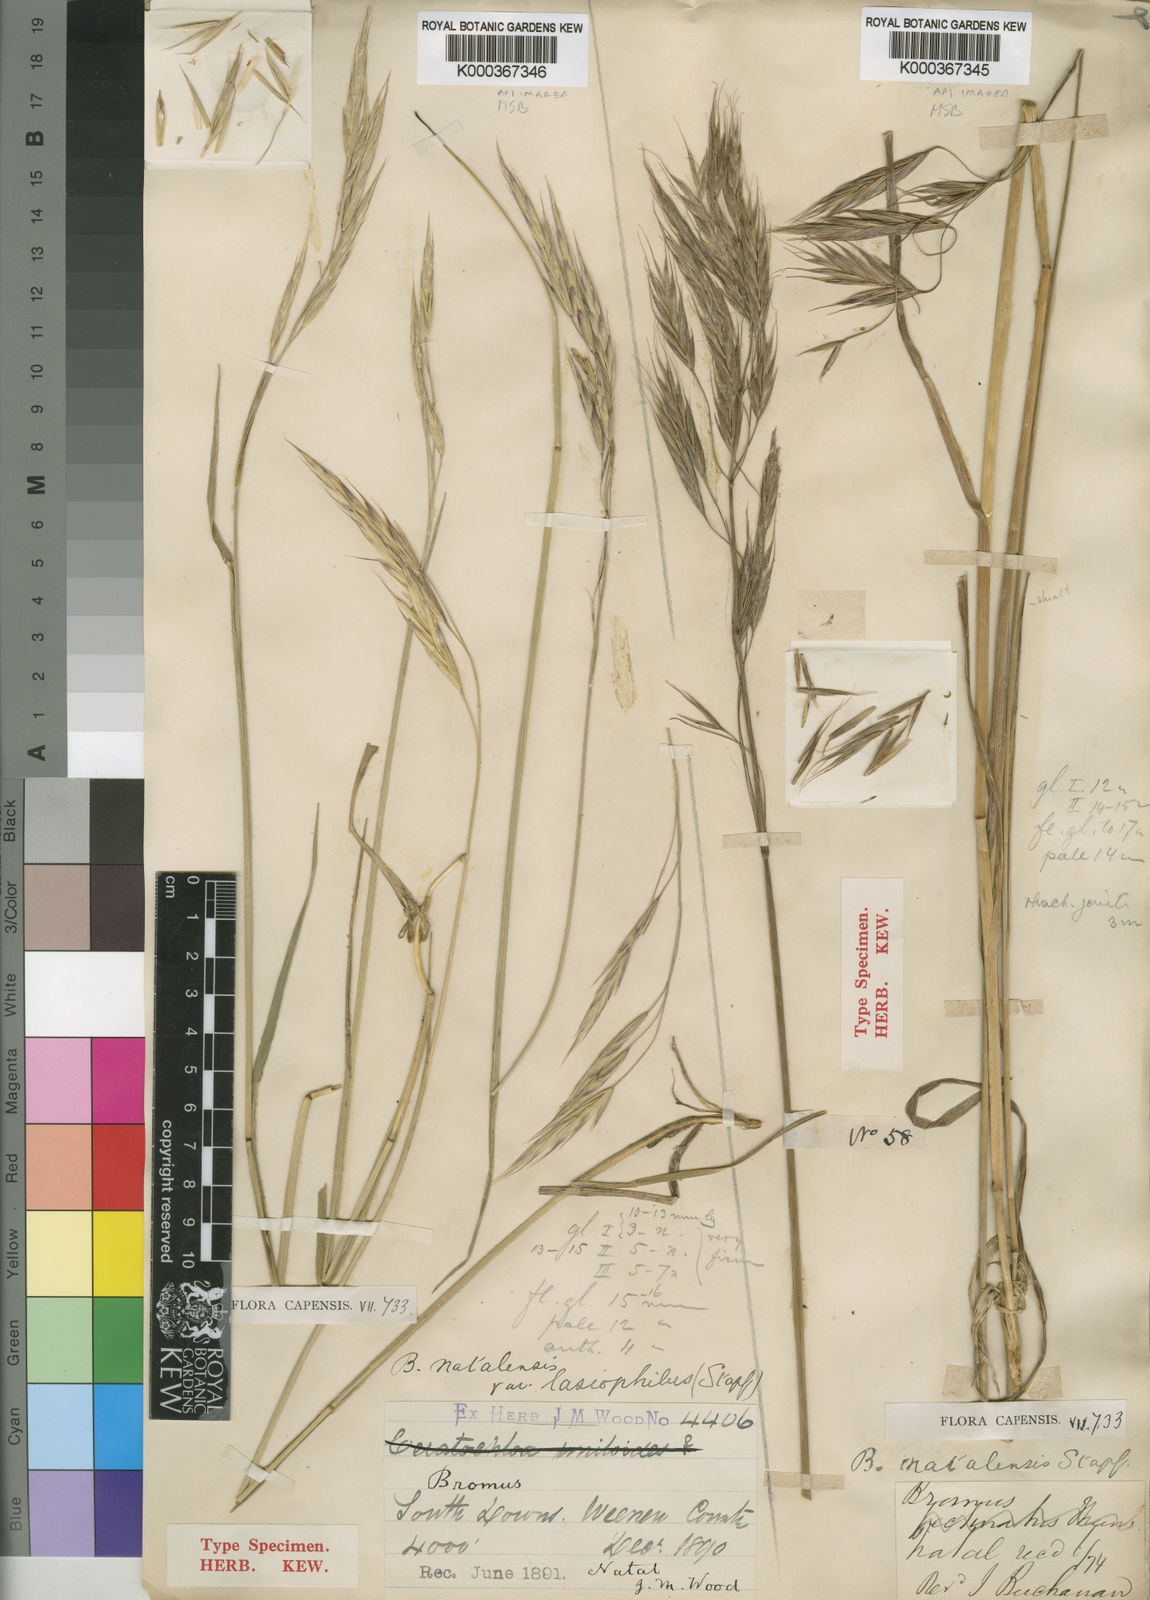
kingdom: Plantae
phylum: Tracheophyta
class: Liliopsida
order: Poales
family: Poaceae
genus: Bromus
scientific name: Bromus natalensis
